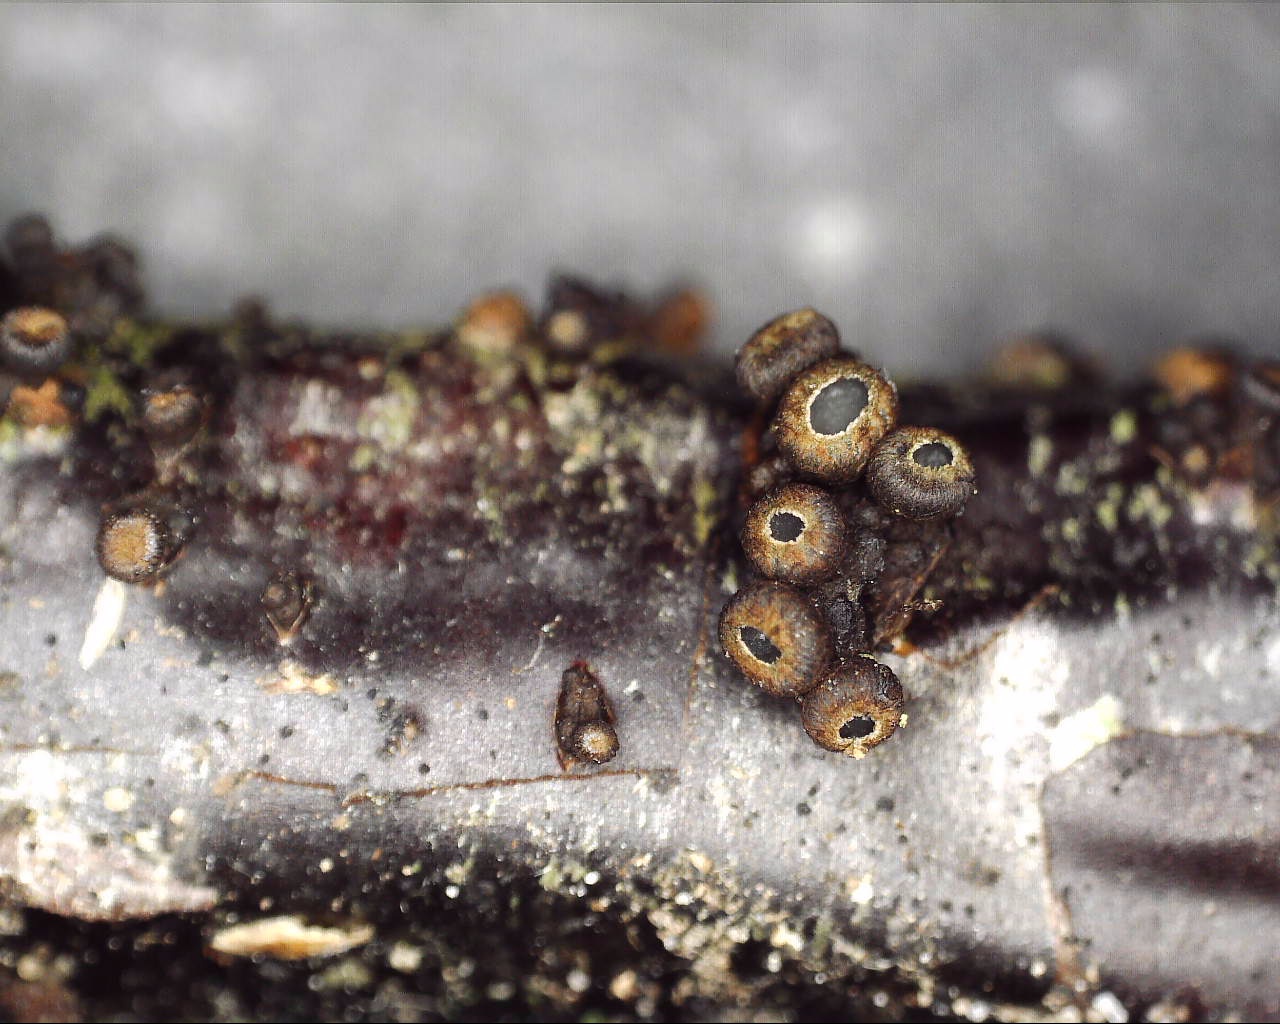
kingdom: Fungi
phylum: Ascomycota
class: Leotiomycetes
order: Helotiales
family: Godroniaceae
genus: Godronia
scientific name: Godronia ribis
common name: ribs-urneskive
